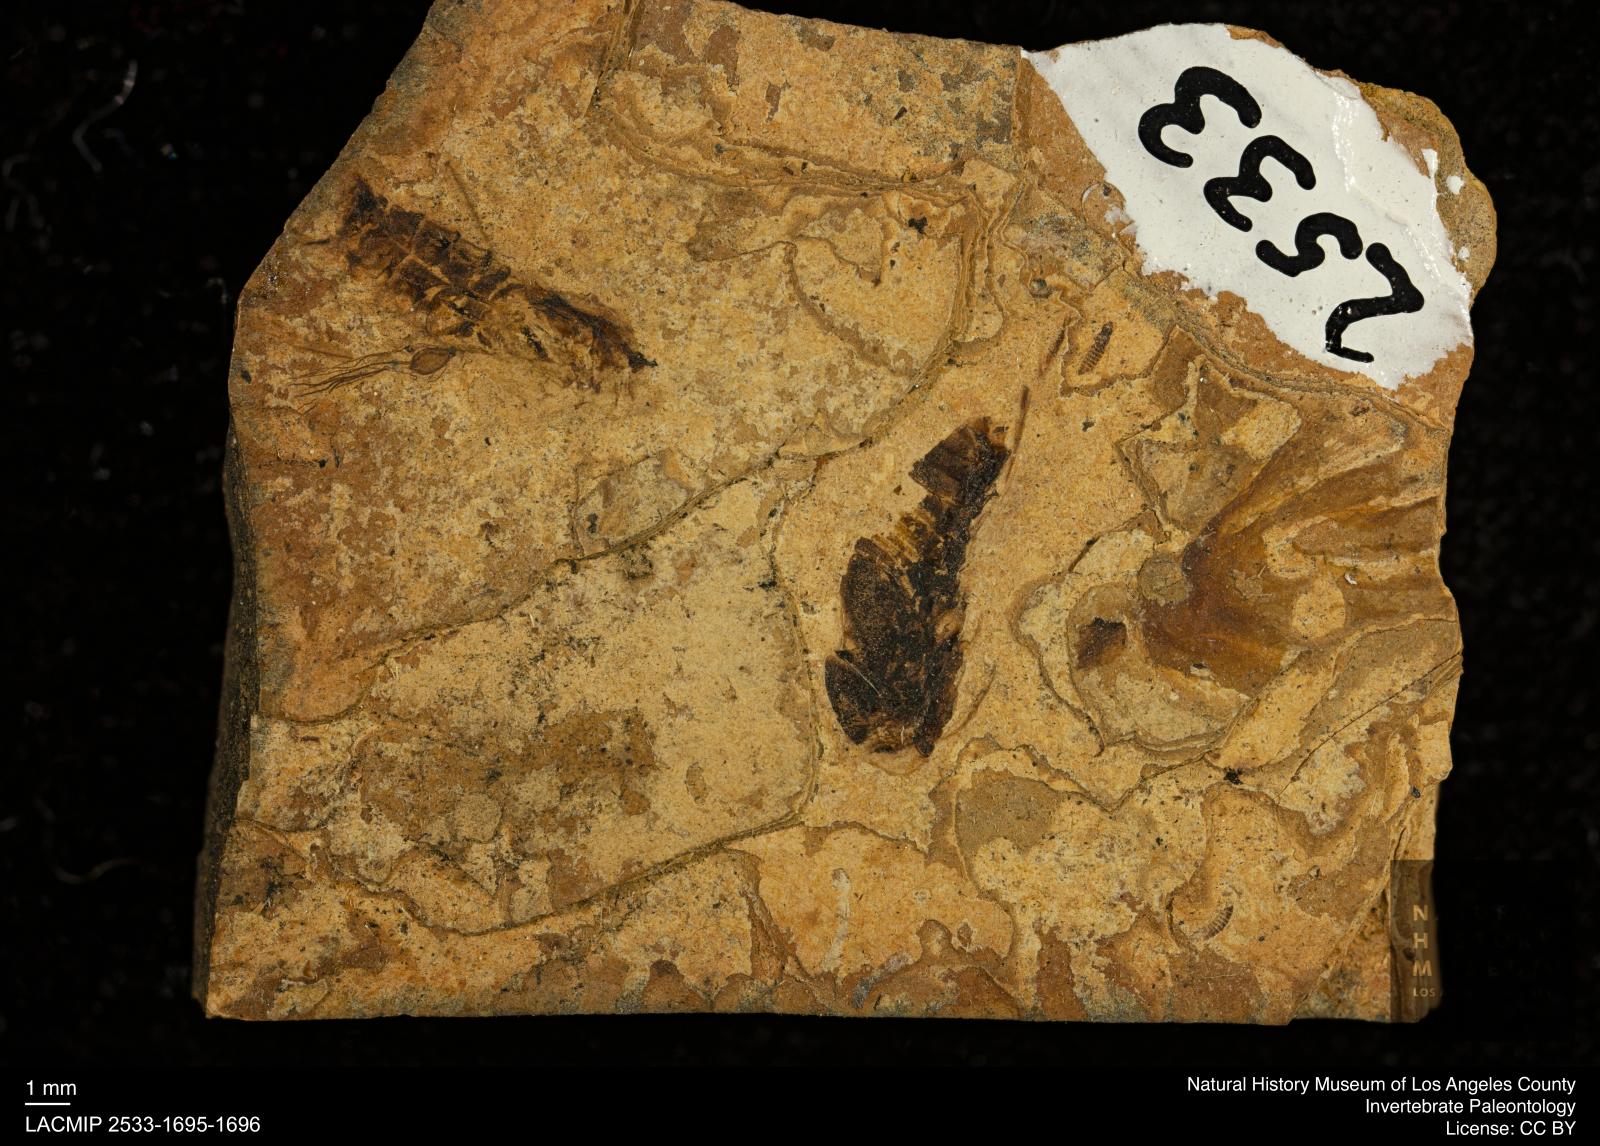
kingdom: Animalia
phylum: Arthropoda
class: Insecta
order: Thysanoptera
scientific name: Thysanoptera
